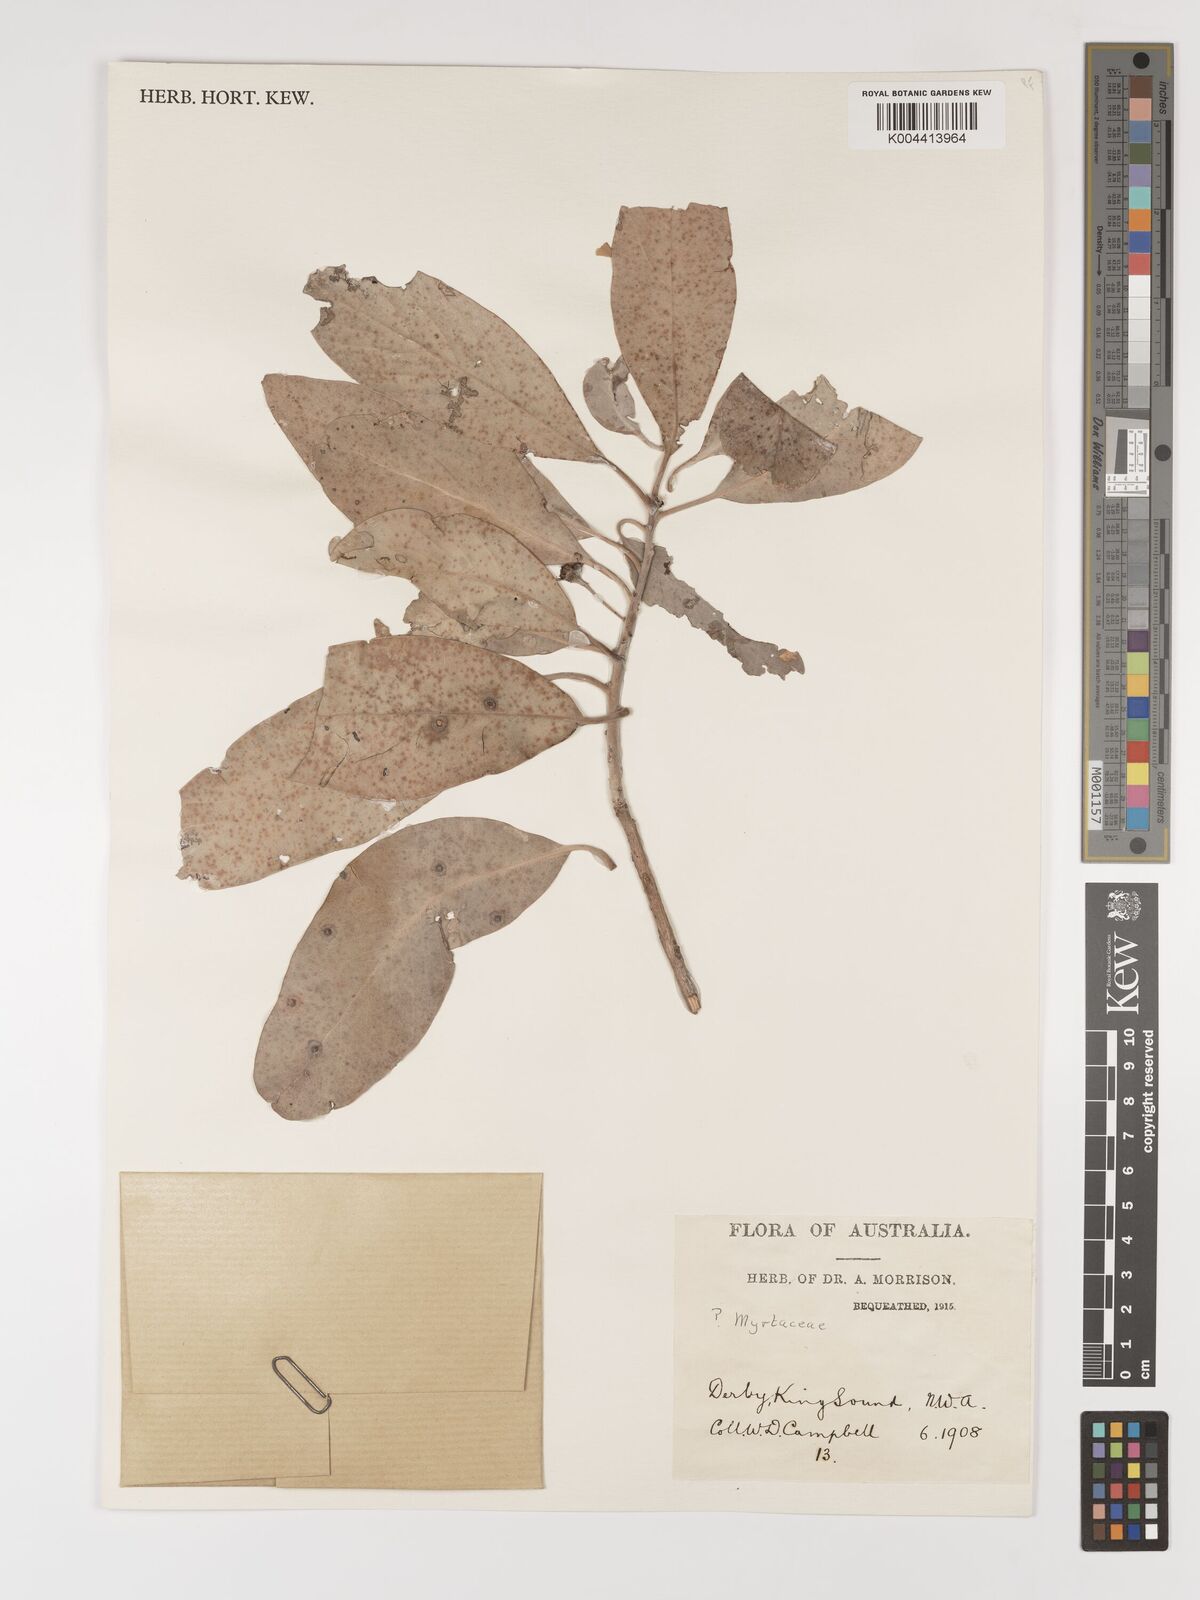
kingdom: Plantae
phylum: Tracheophyta
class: Magnoliopsida
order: Myrtales
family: Myrtaceae
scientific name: Myrtaceae
